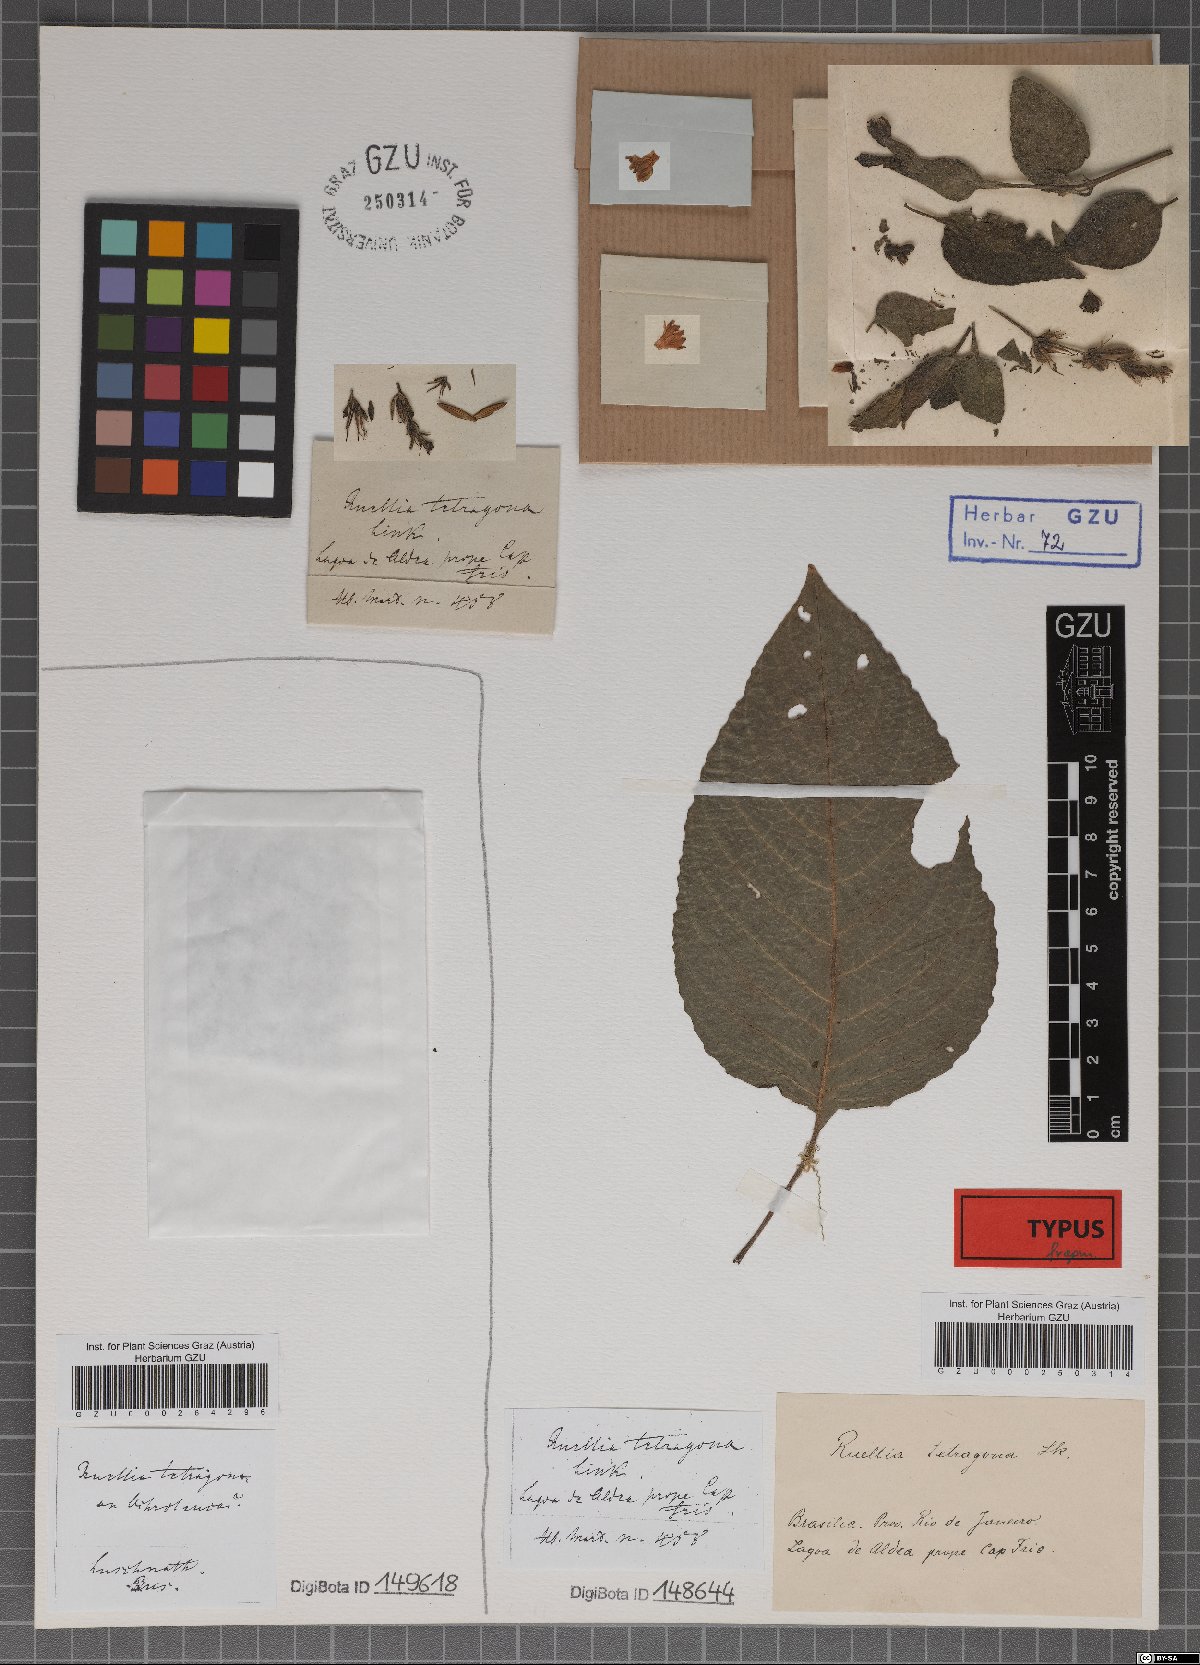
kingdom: Plantae
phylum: Tracheophyta
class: Magnoliopsida
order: Lamiales
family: Acanthaceae
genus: Ruellia
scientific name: Ruellia tetragona
